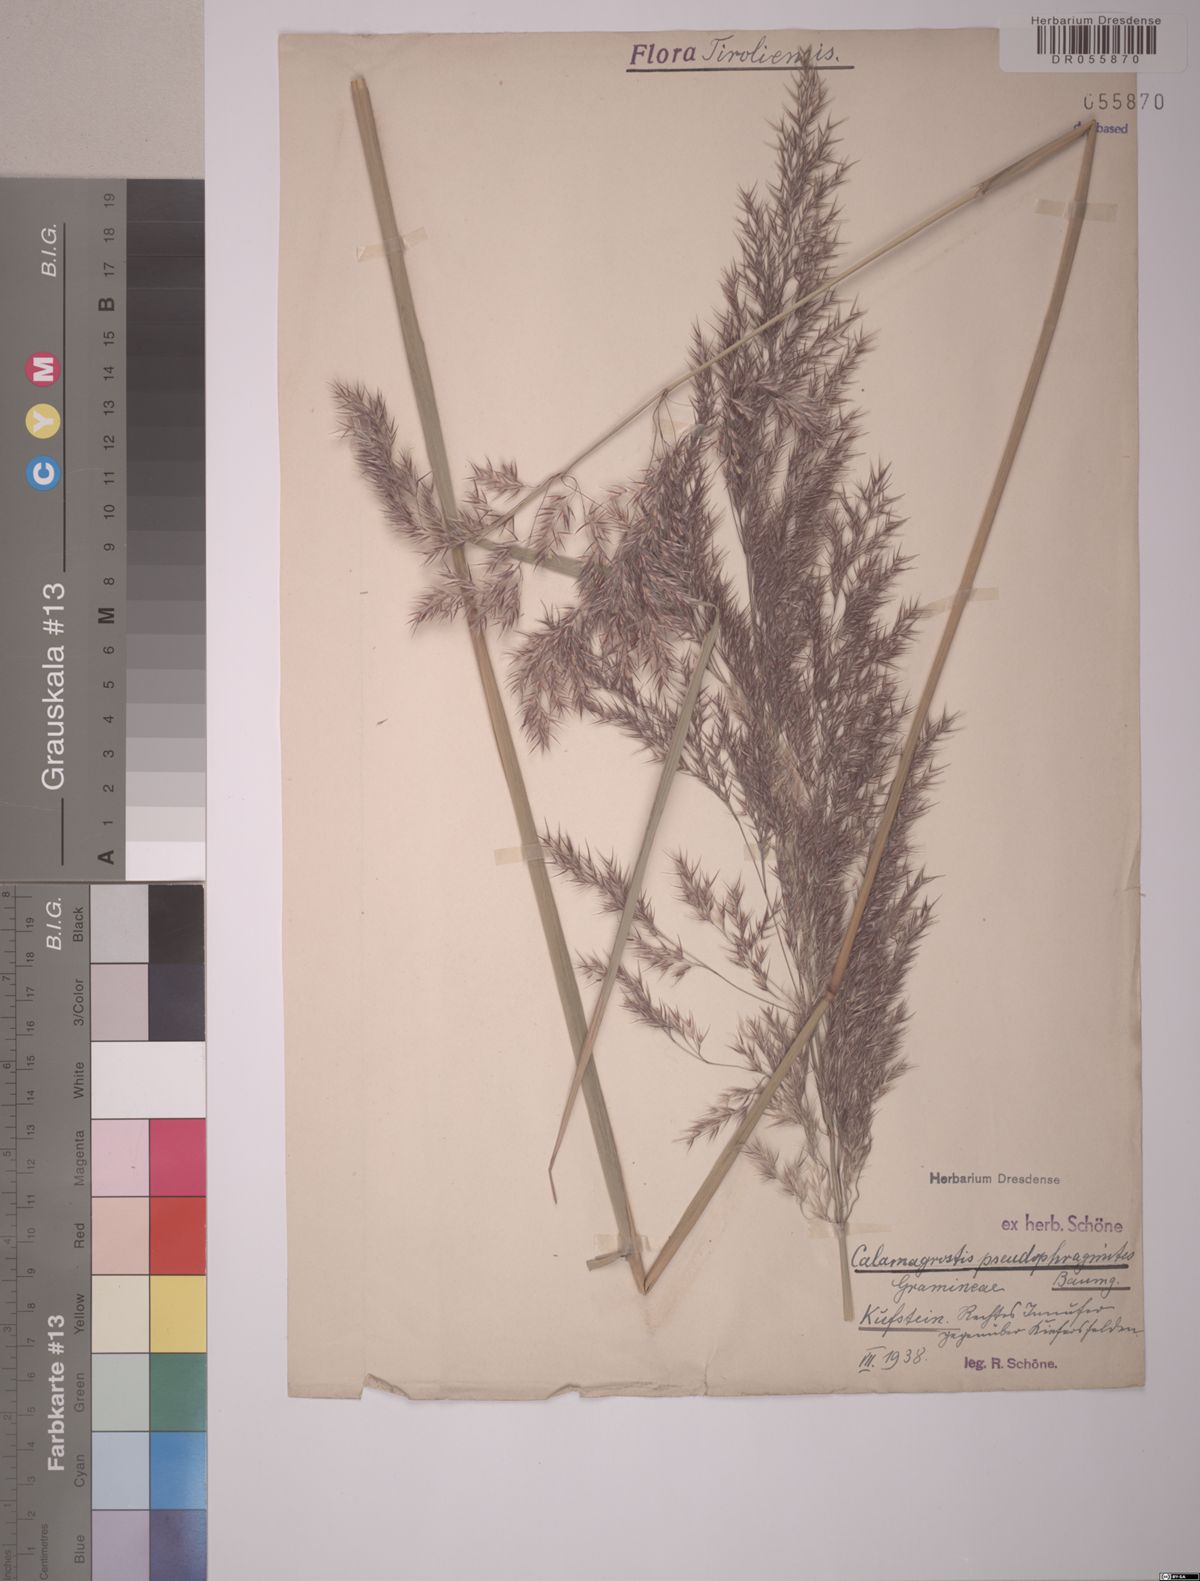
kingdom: Plantae
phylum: Tracheophyta
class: Liliopsida
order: Poales
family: Poaceae
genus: Calamagrostis
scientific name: Calamagrostis pseudophragmites
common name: Coastal small-reed
